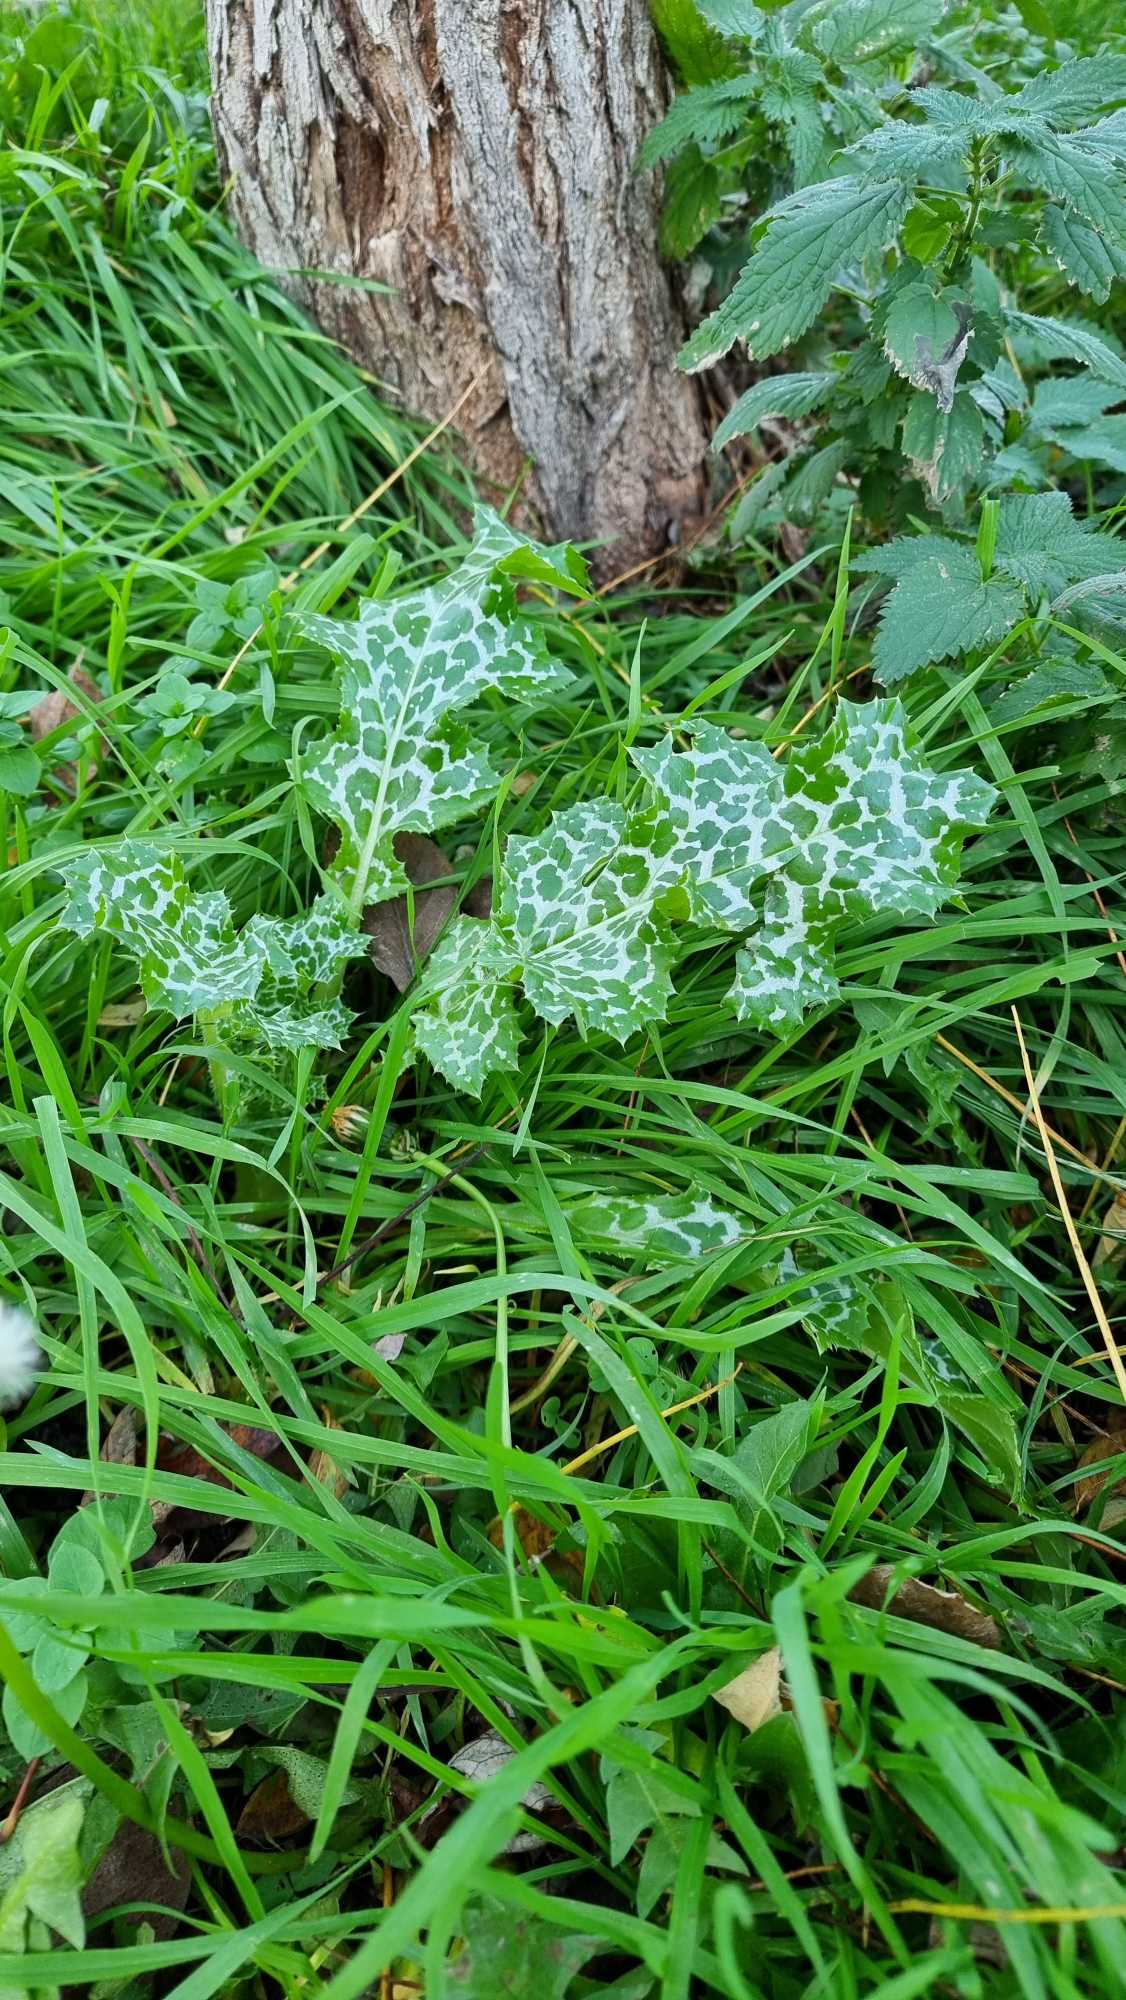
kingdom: Plantae
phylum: Tracheophyta
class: Magnoliopsida
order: Asterales
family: Asteraceae
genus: Silybum
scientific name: Silybum marianum
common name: Marietidsel
